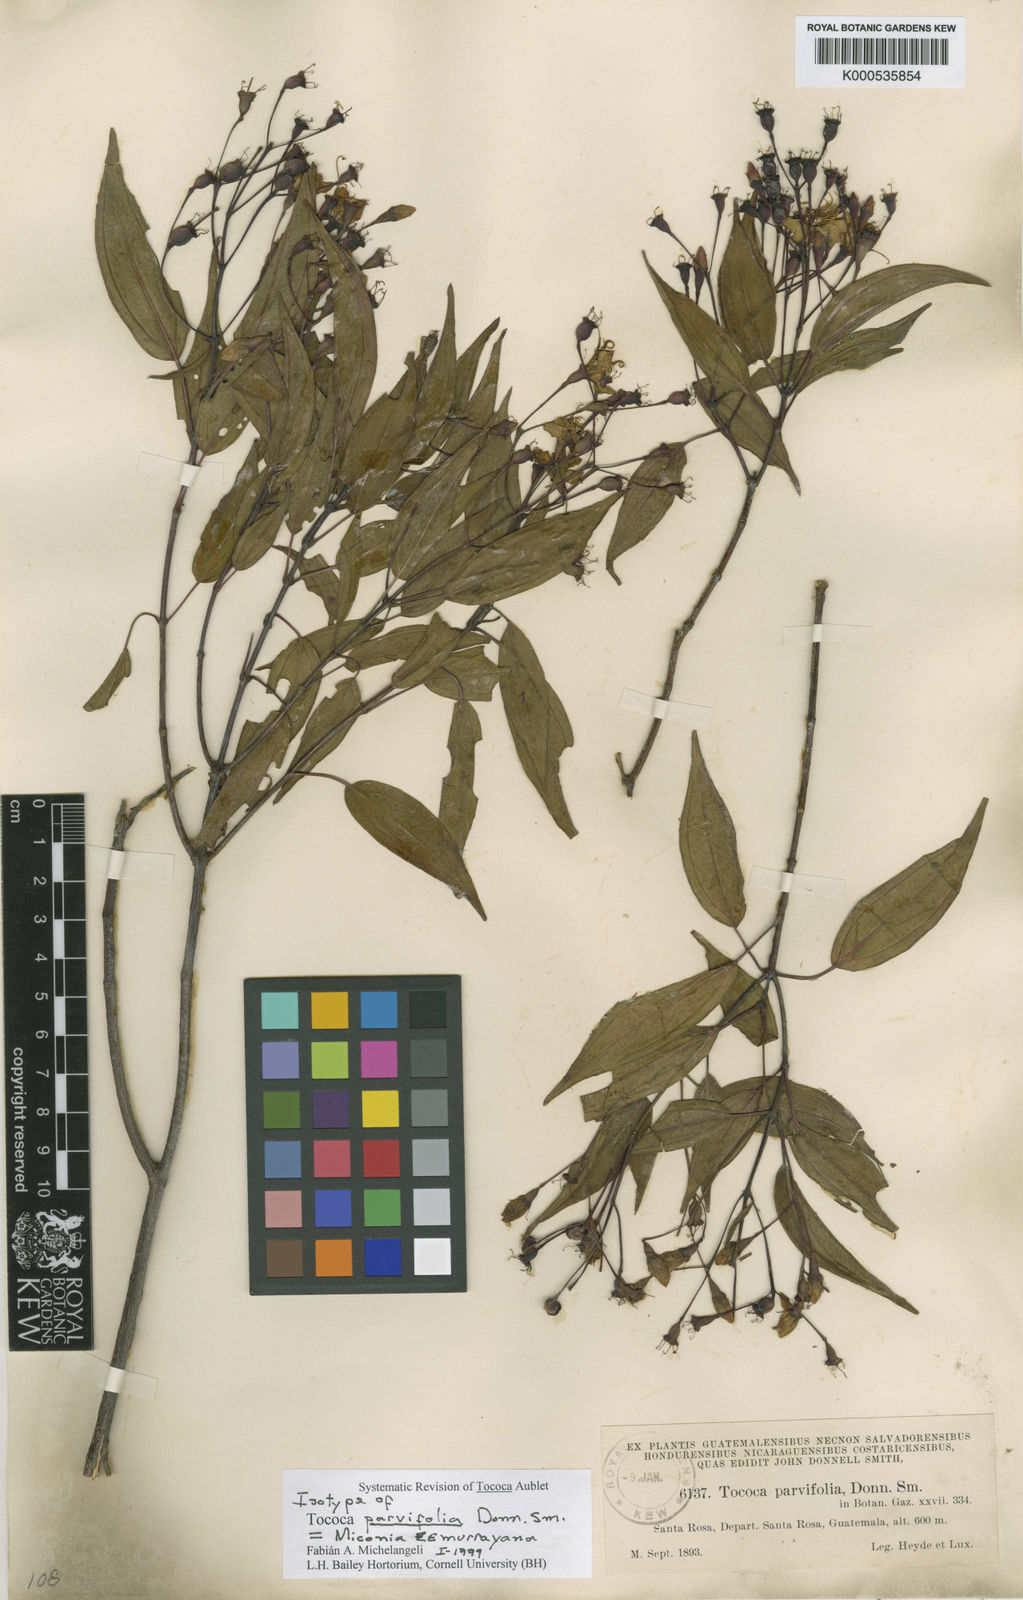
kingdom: Plantae
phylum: Tracheophyta
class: Magnoliopsida
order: Myrtales
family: Melastomataceae
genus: Miconia
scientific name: Miconia zemurrayana
